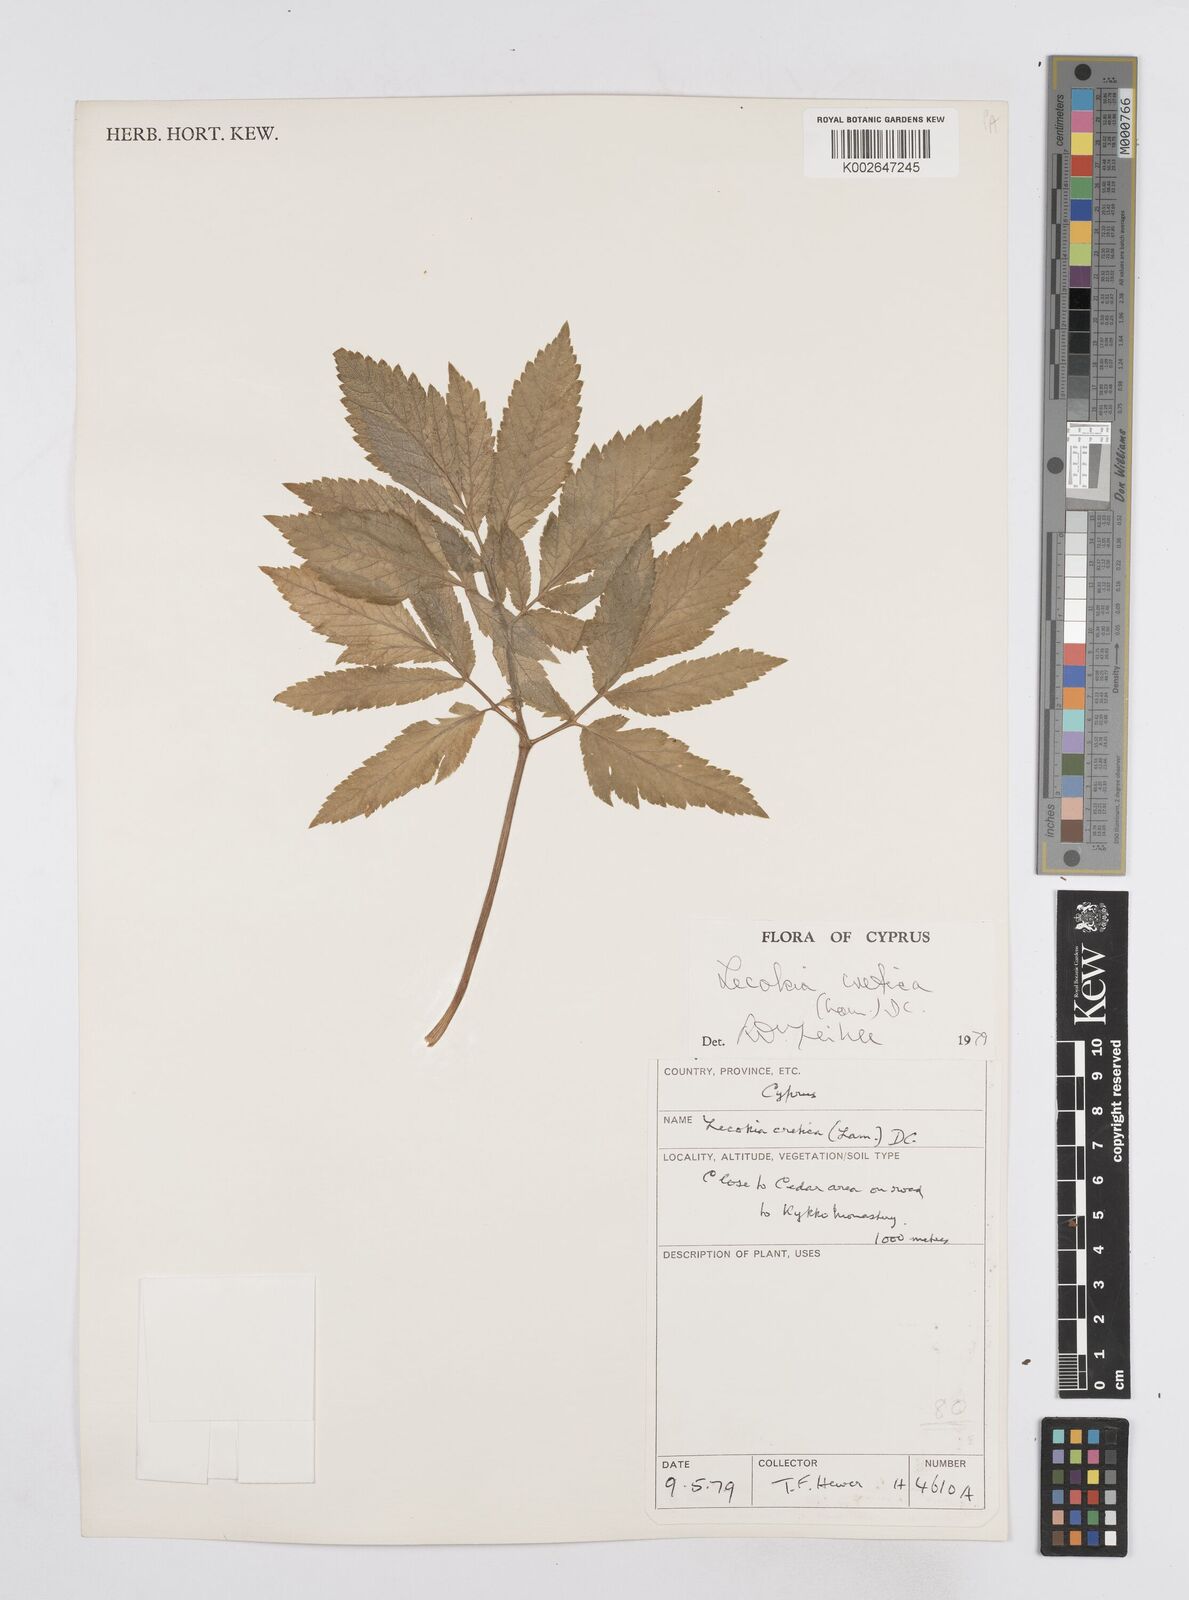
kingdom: Plantae
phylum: Tracheophyta
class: Magnoliopsida
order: Apiales
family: Apiaceae
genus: Lecokia
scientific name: Lecokia cretica
